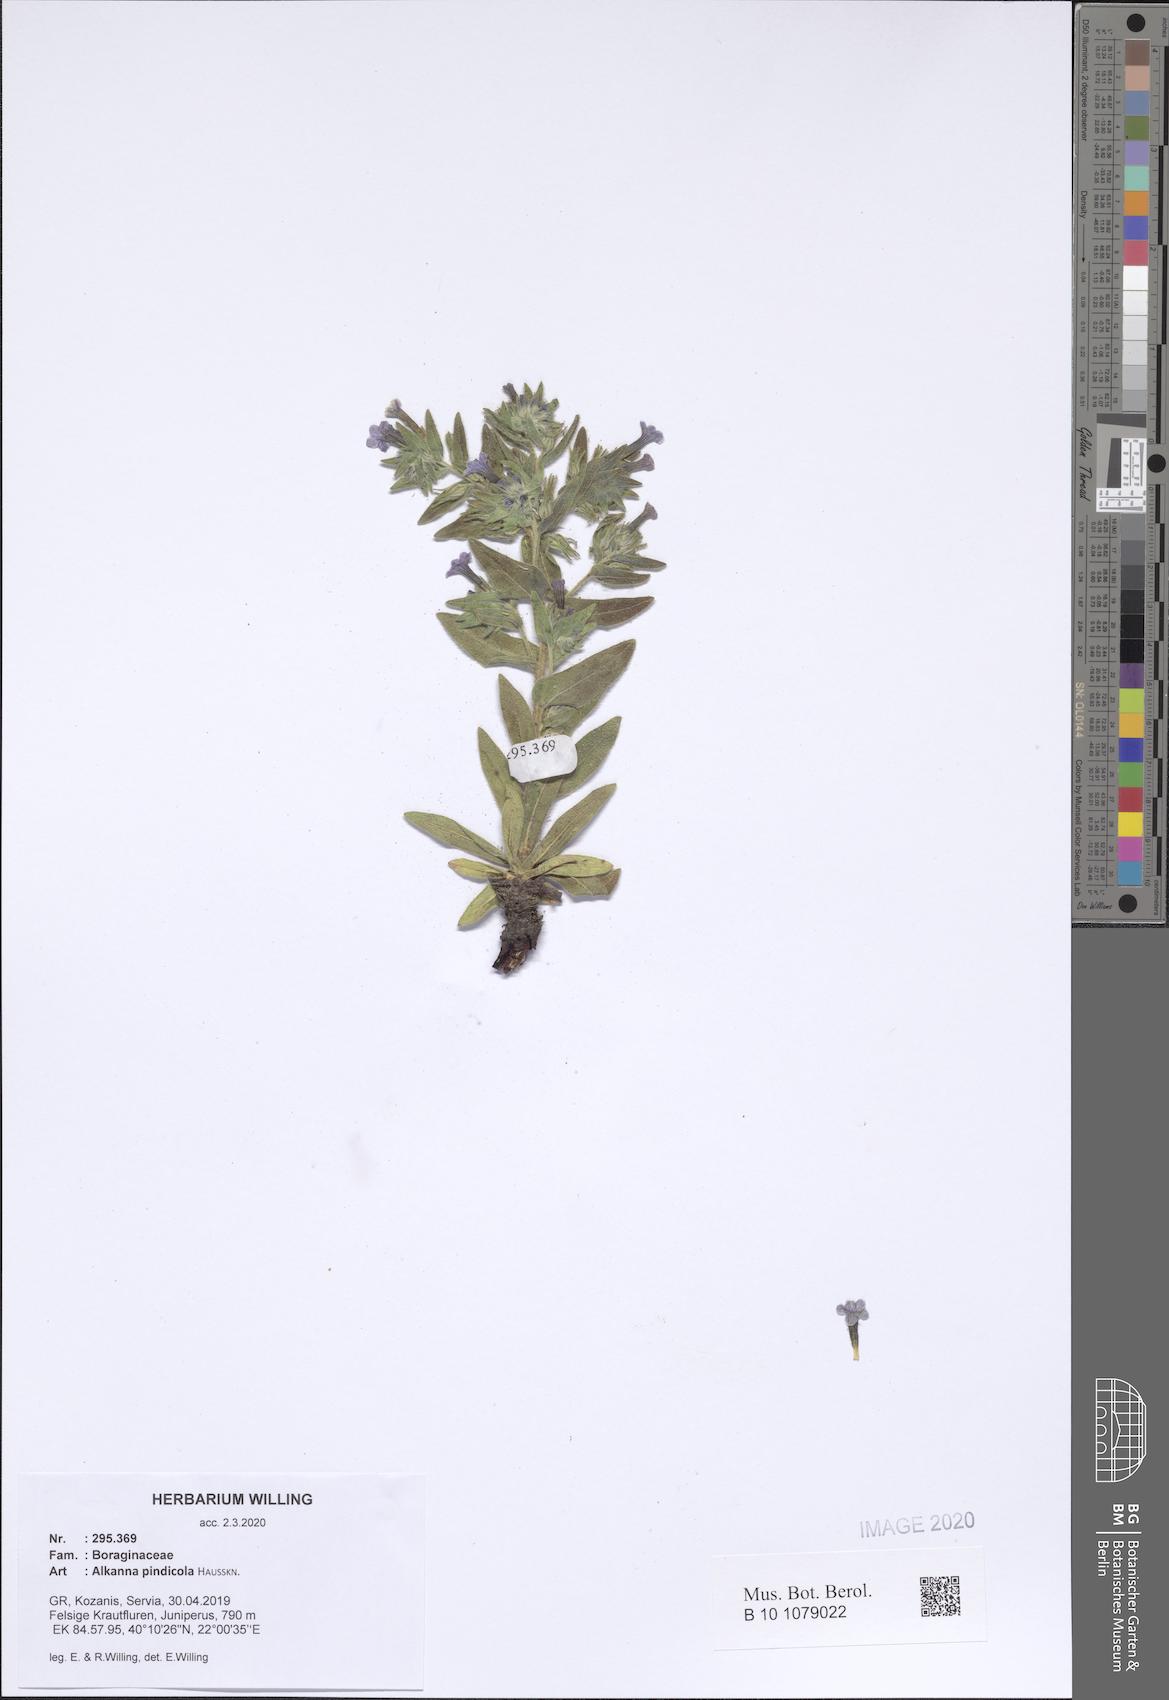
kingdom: Plantae
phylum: Tracheophyta
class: Magnoliopsida
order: Boraginales
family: Boraginaceae
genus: Alkanna
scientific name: Alkanna pindicola
